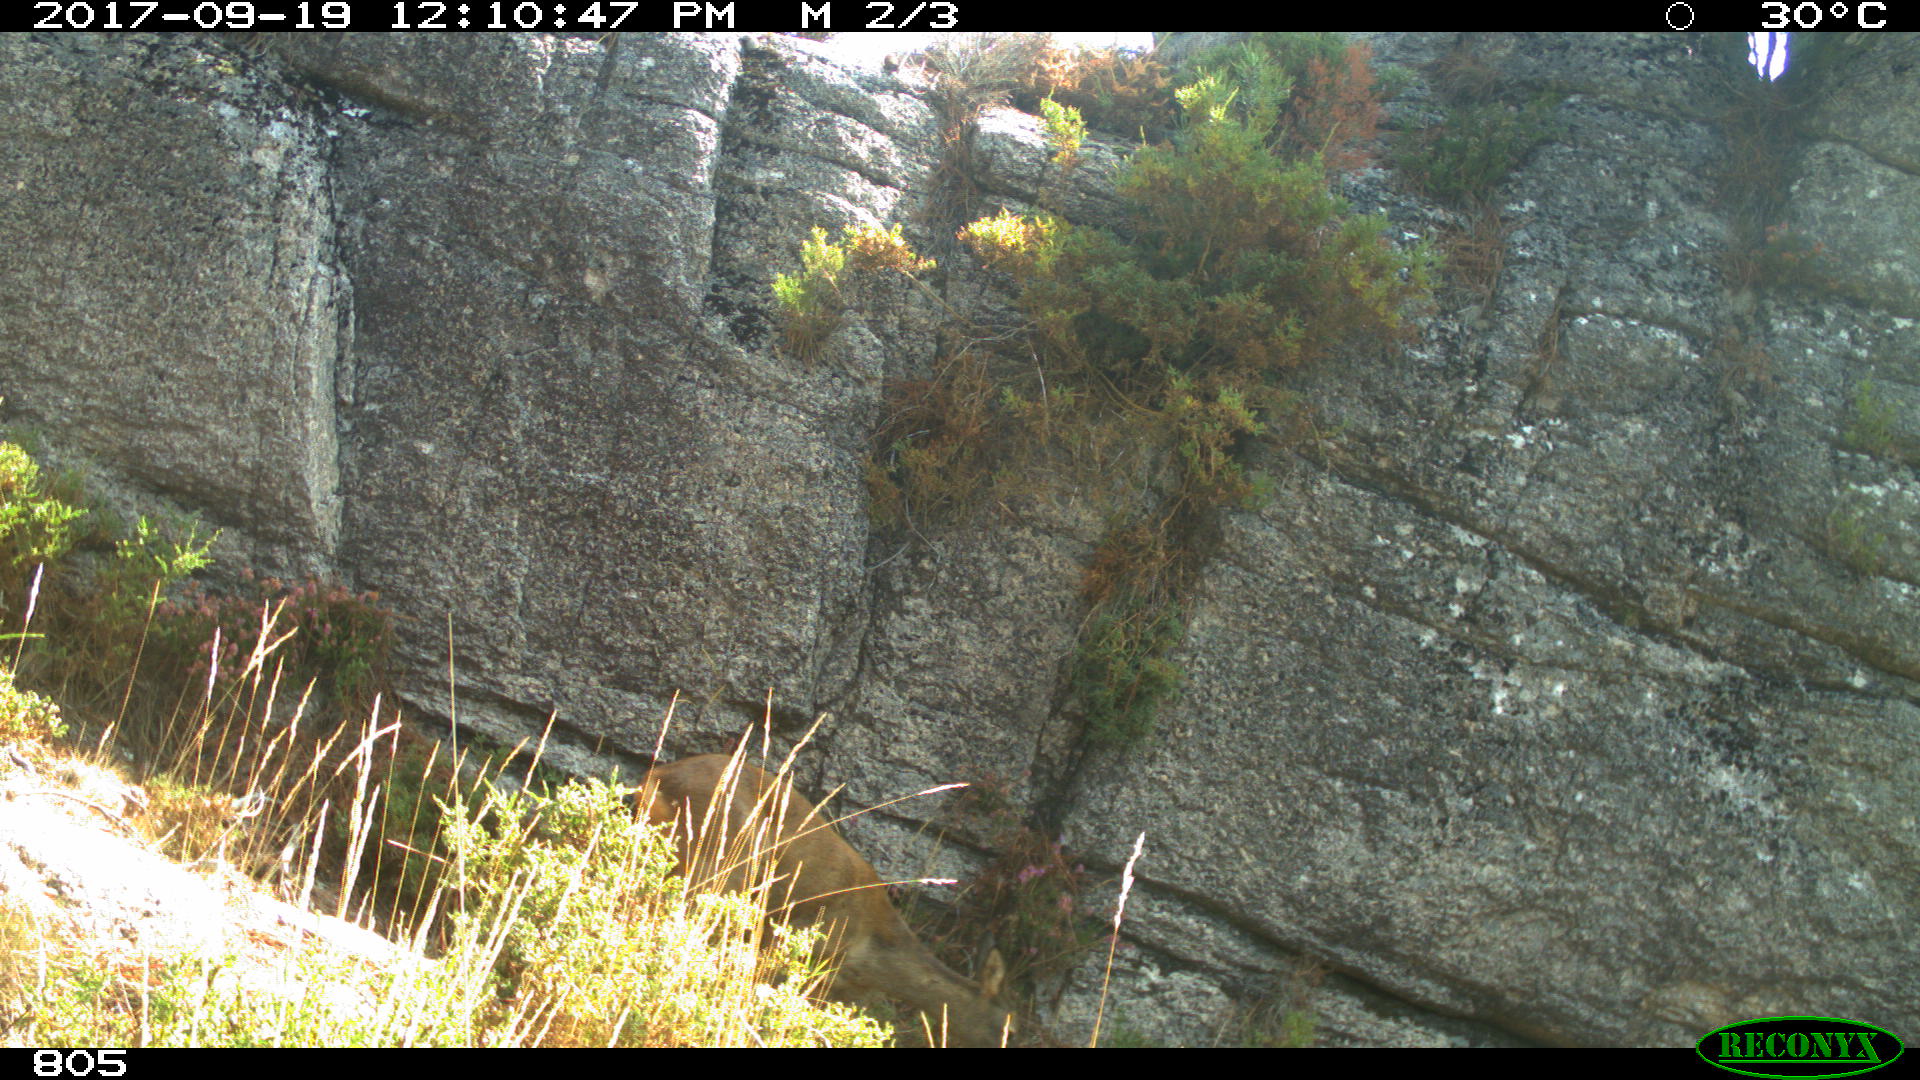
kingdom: Animalia
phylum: Chordata
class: Mammalia
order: Artiodactyla
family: Cervidae
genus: Capreolus
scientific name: Capreolus capreolus
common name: Western roe deer
